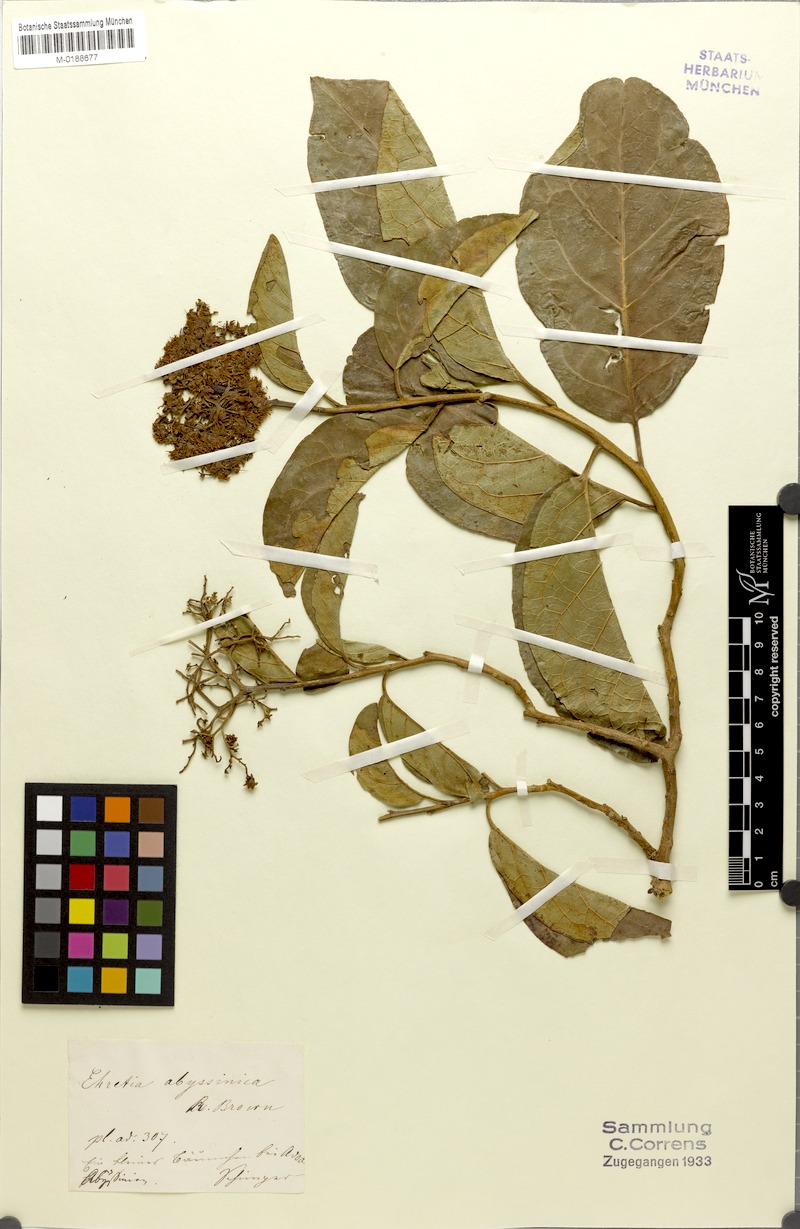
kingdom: Plantae
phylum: Tracheophyta
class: Magnoliopsida
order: Boraginales
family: Ehretiaceae
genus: Ehretia
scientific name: Ehretia cymosa
